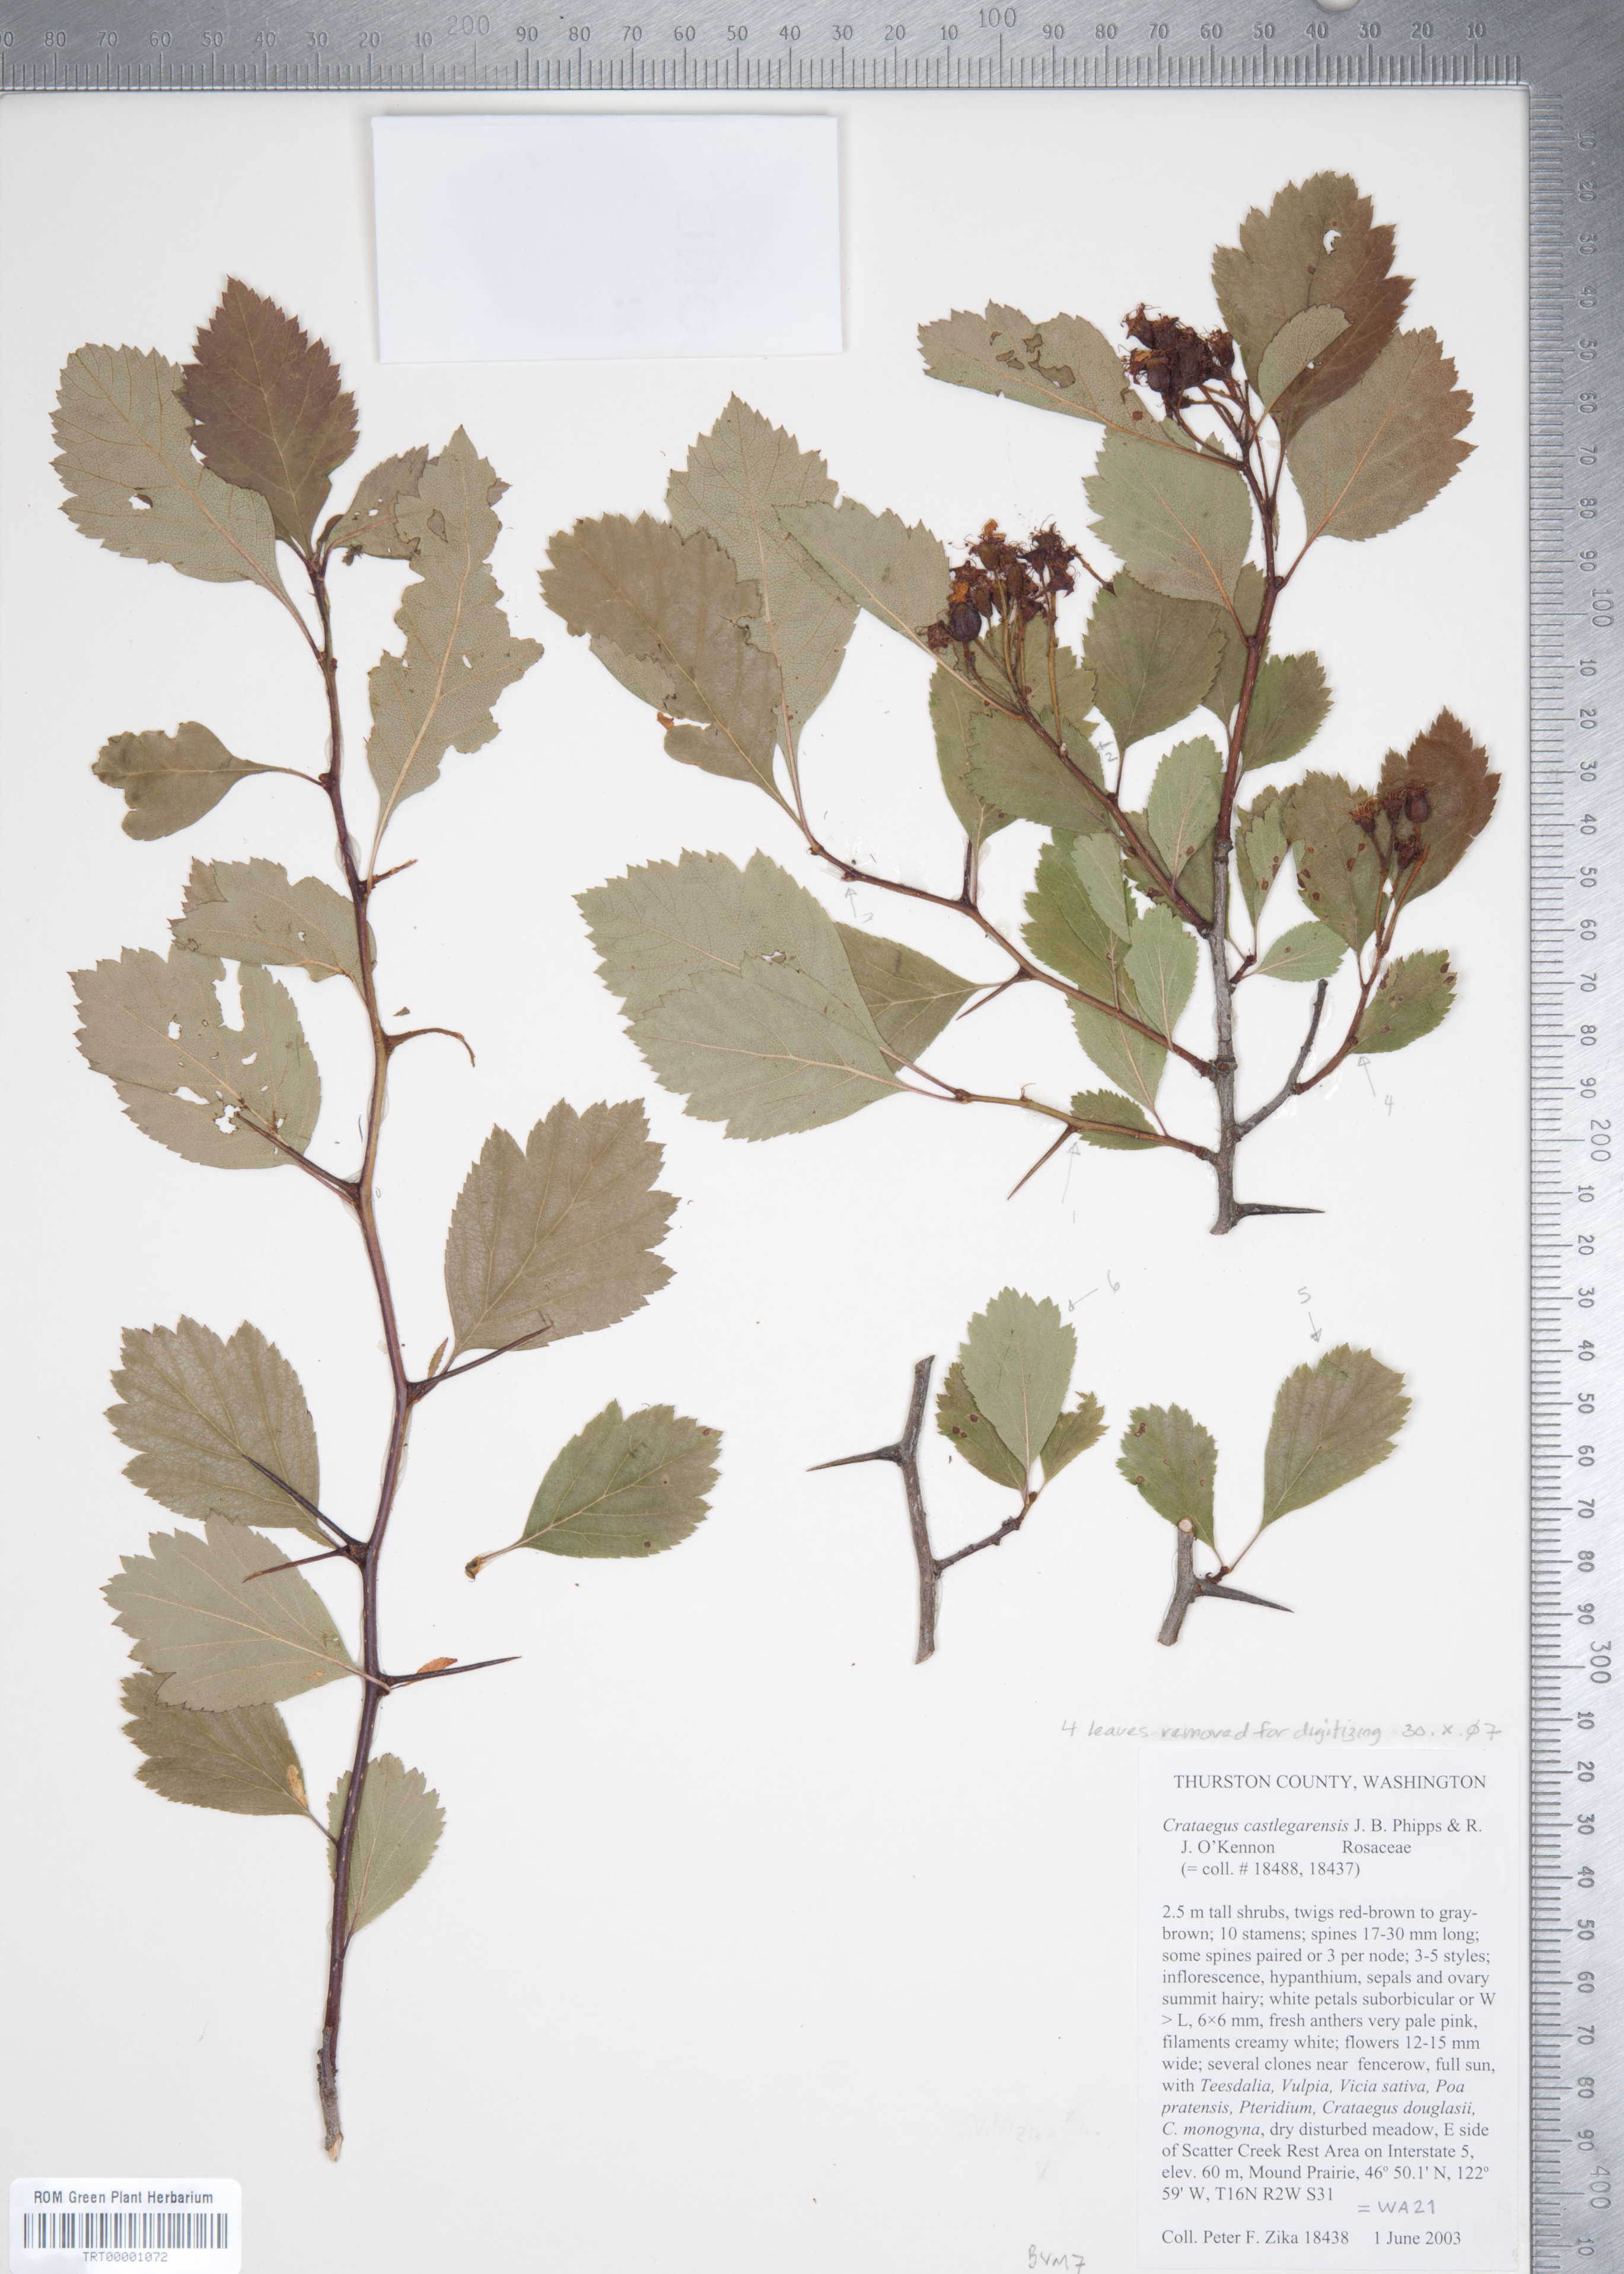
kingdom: Plantae
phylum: Tracheophyta
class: Magnoliopsida
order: Rosales
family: Rosaceae
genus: Crataegus
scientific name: Crataegus castlegarensis
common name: Castlegar hawthorn
